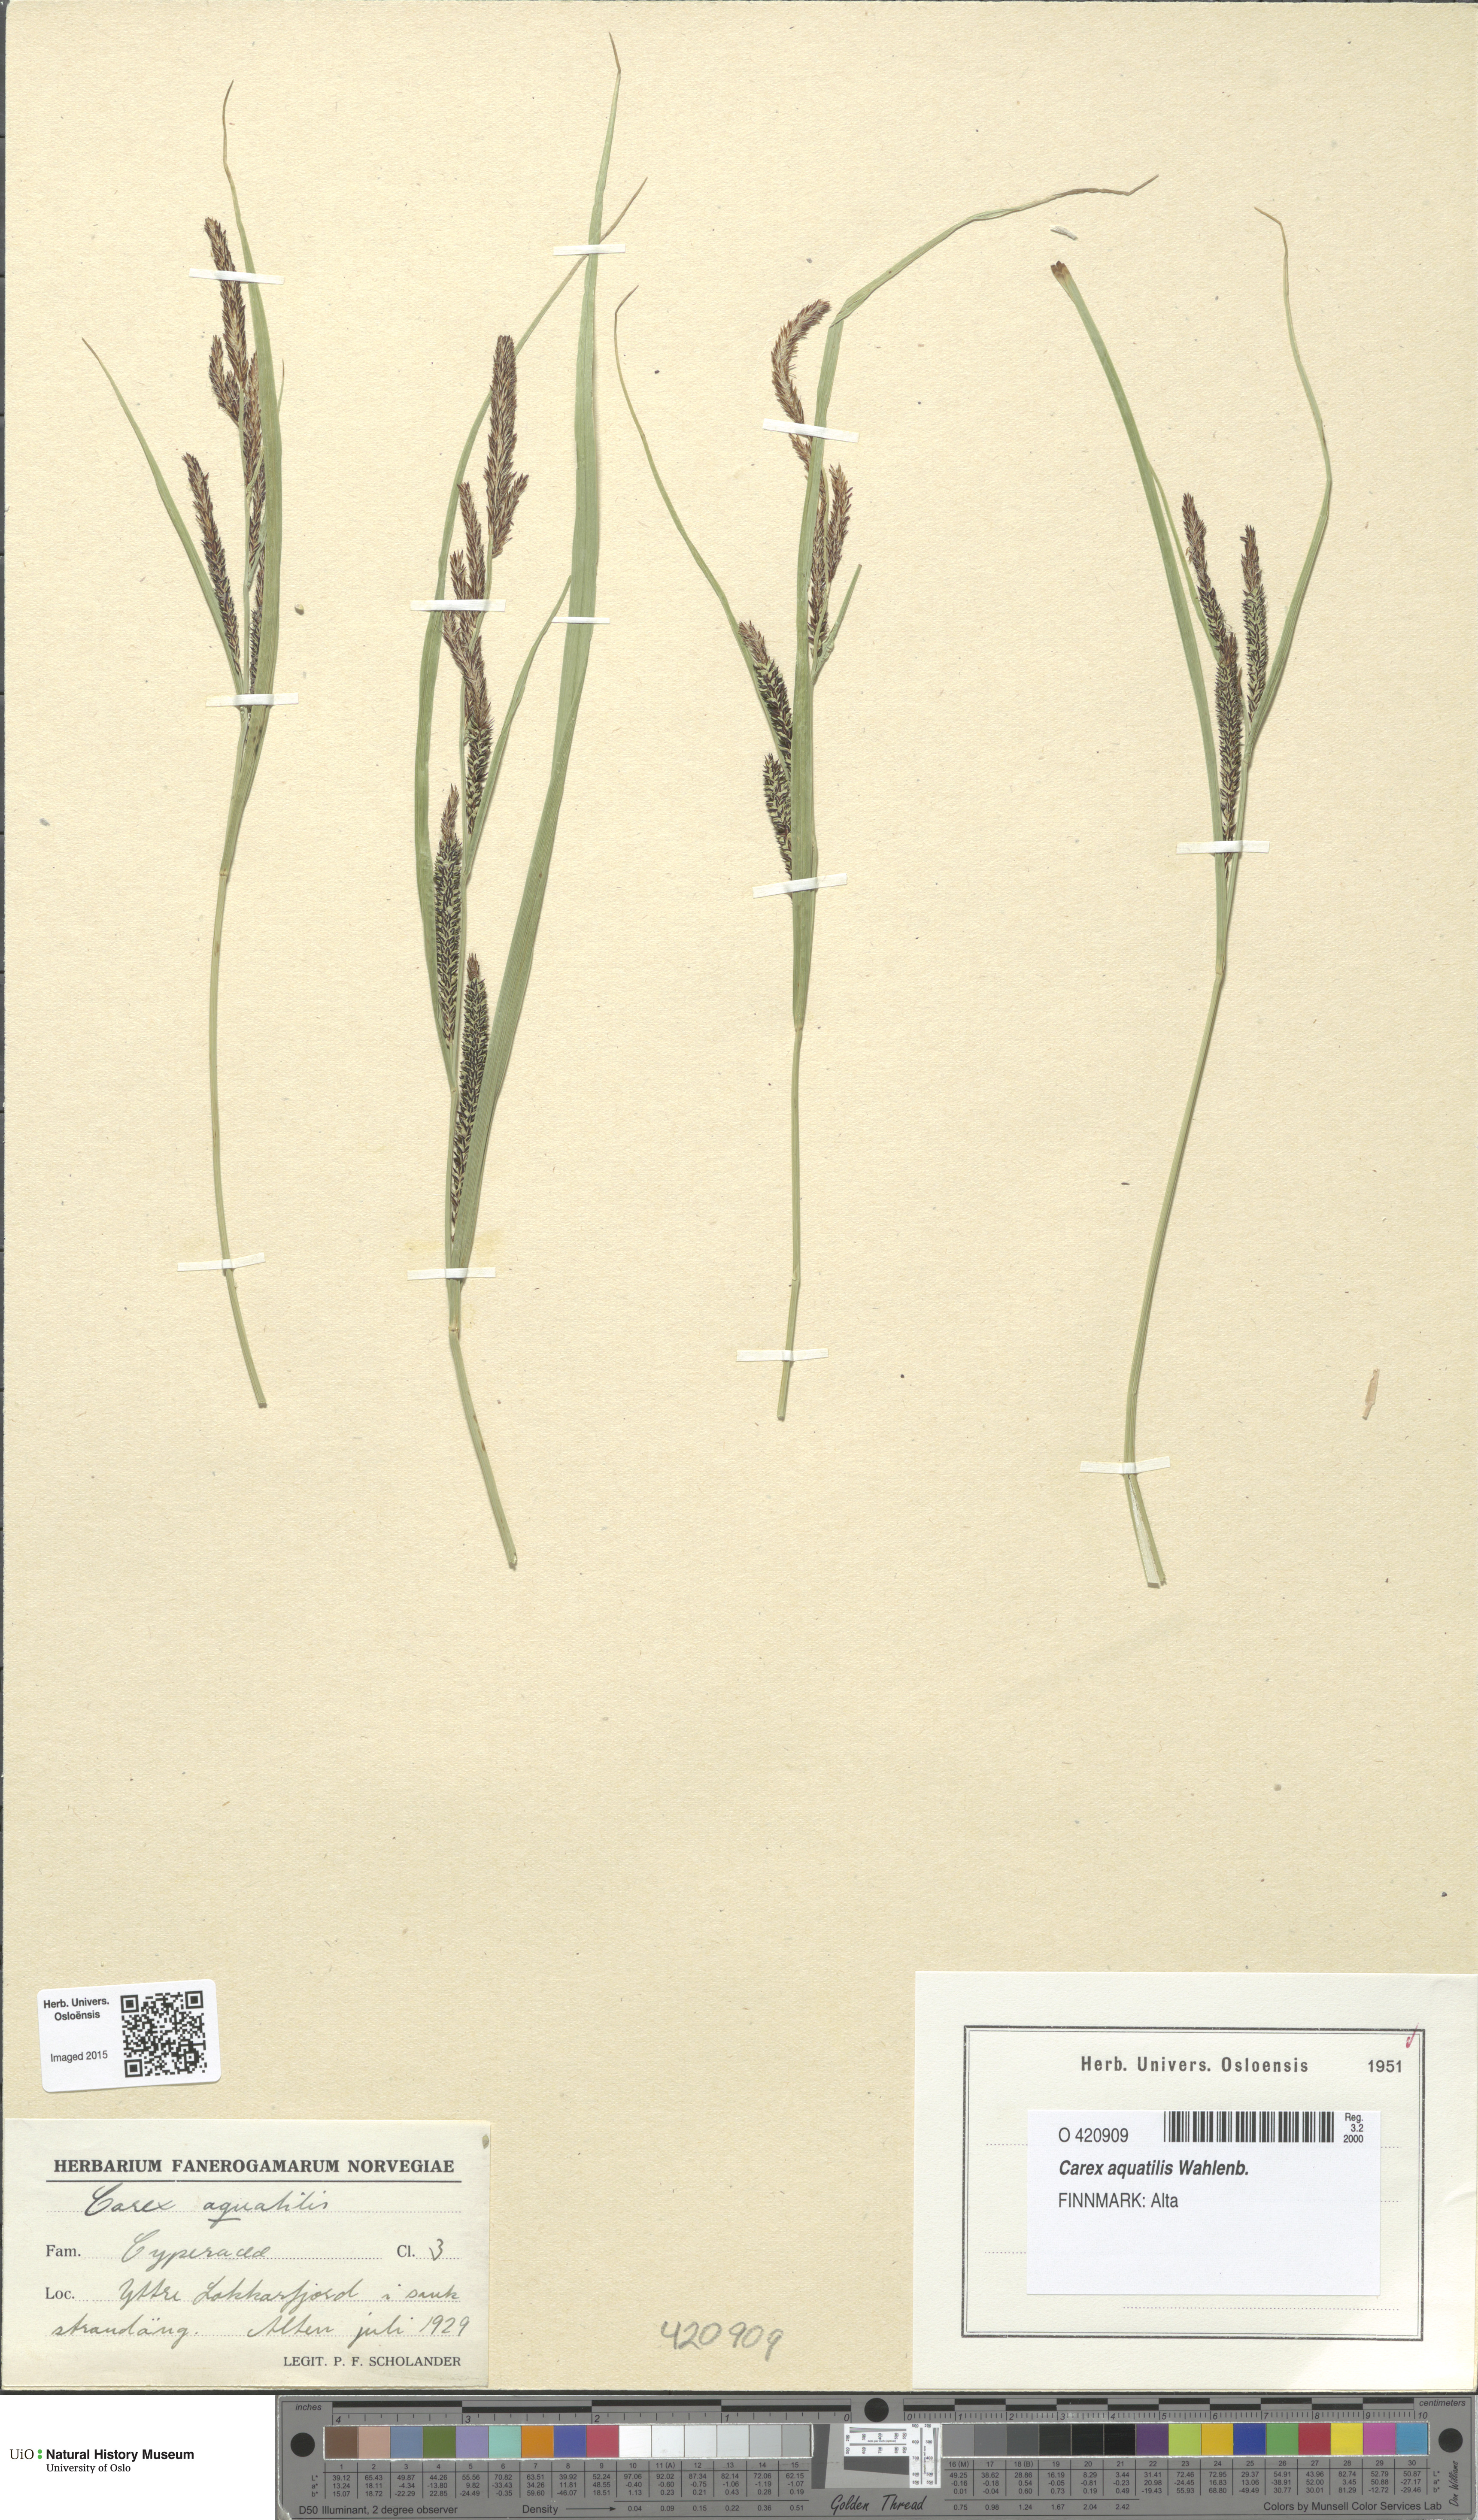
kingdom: Plantae
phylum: Tracheophyta
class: Liliopsida
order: Poales
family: Cyperaceae
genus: Carex
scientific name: Carex aquatilis
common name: Water sedge
